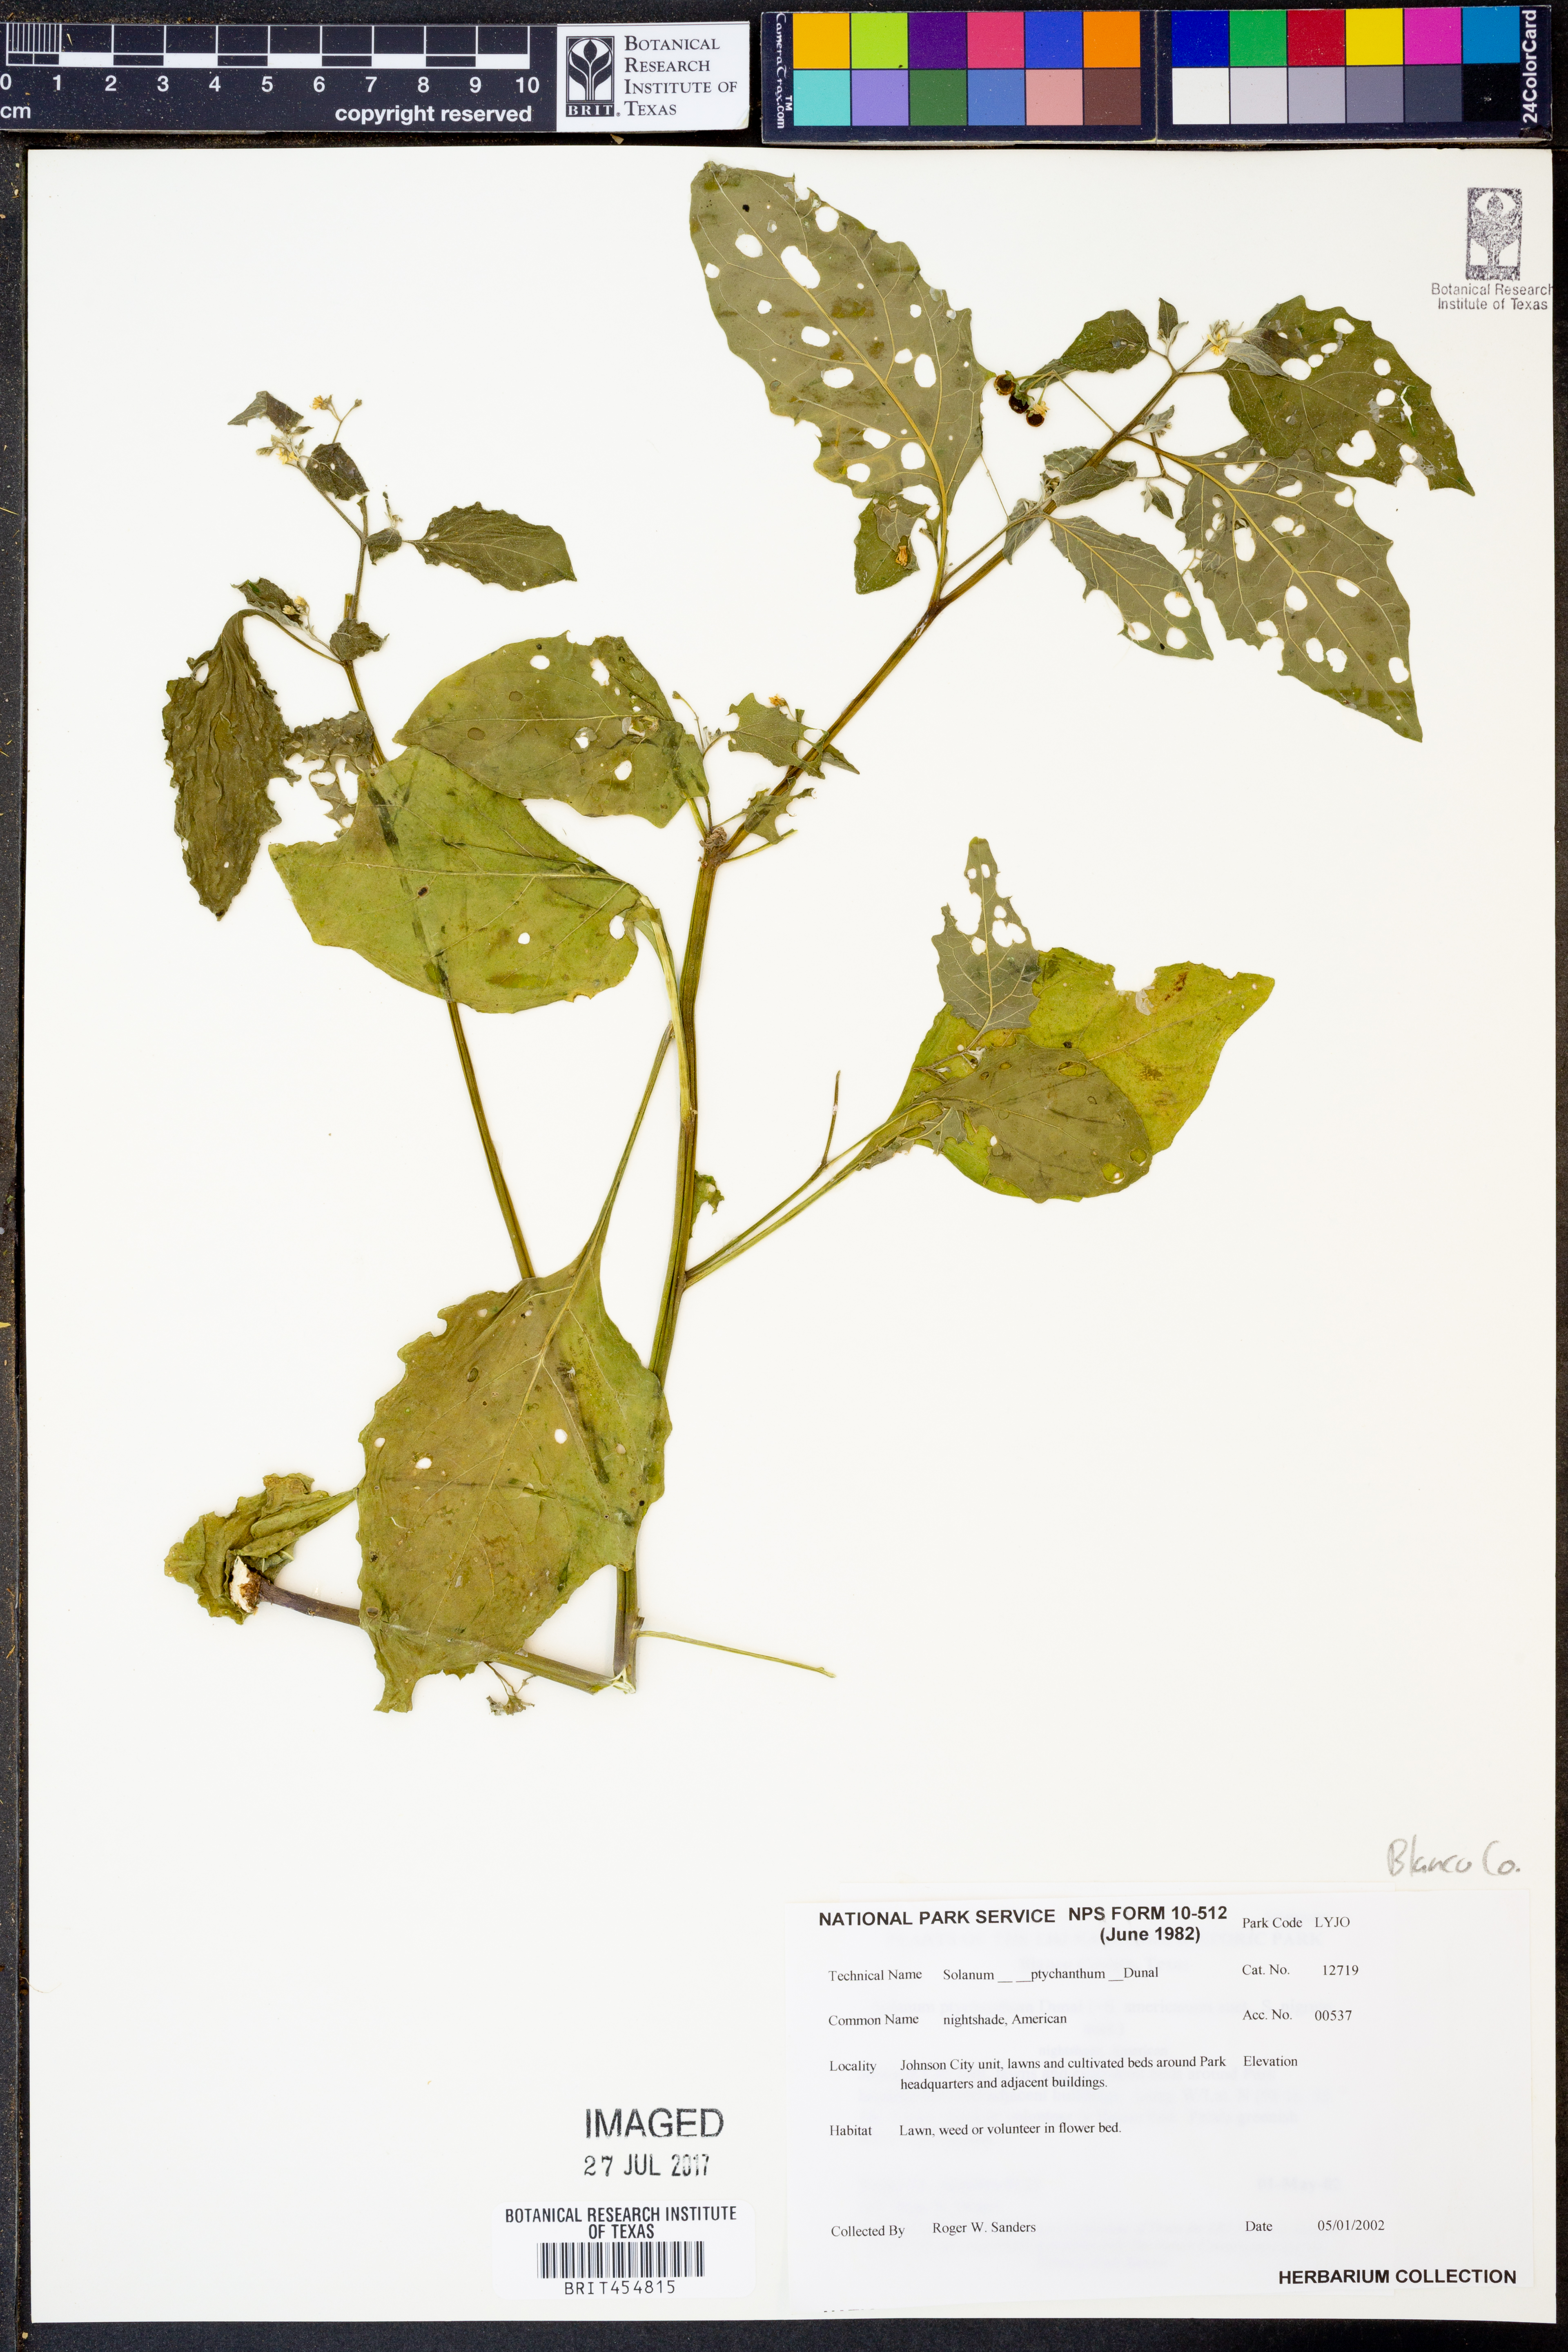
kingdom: Plantae
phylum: Tracheophyta
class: Magnoliopsida
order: Solanales
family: Solanaceae
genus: Solanum
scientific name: Solanum americanum
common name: American black nightshade
